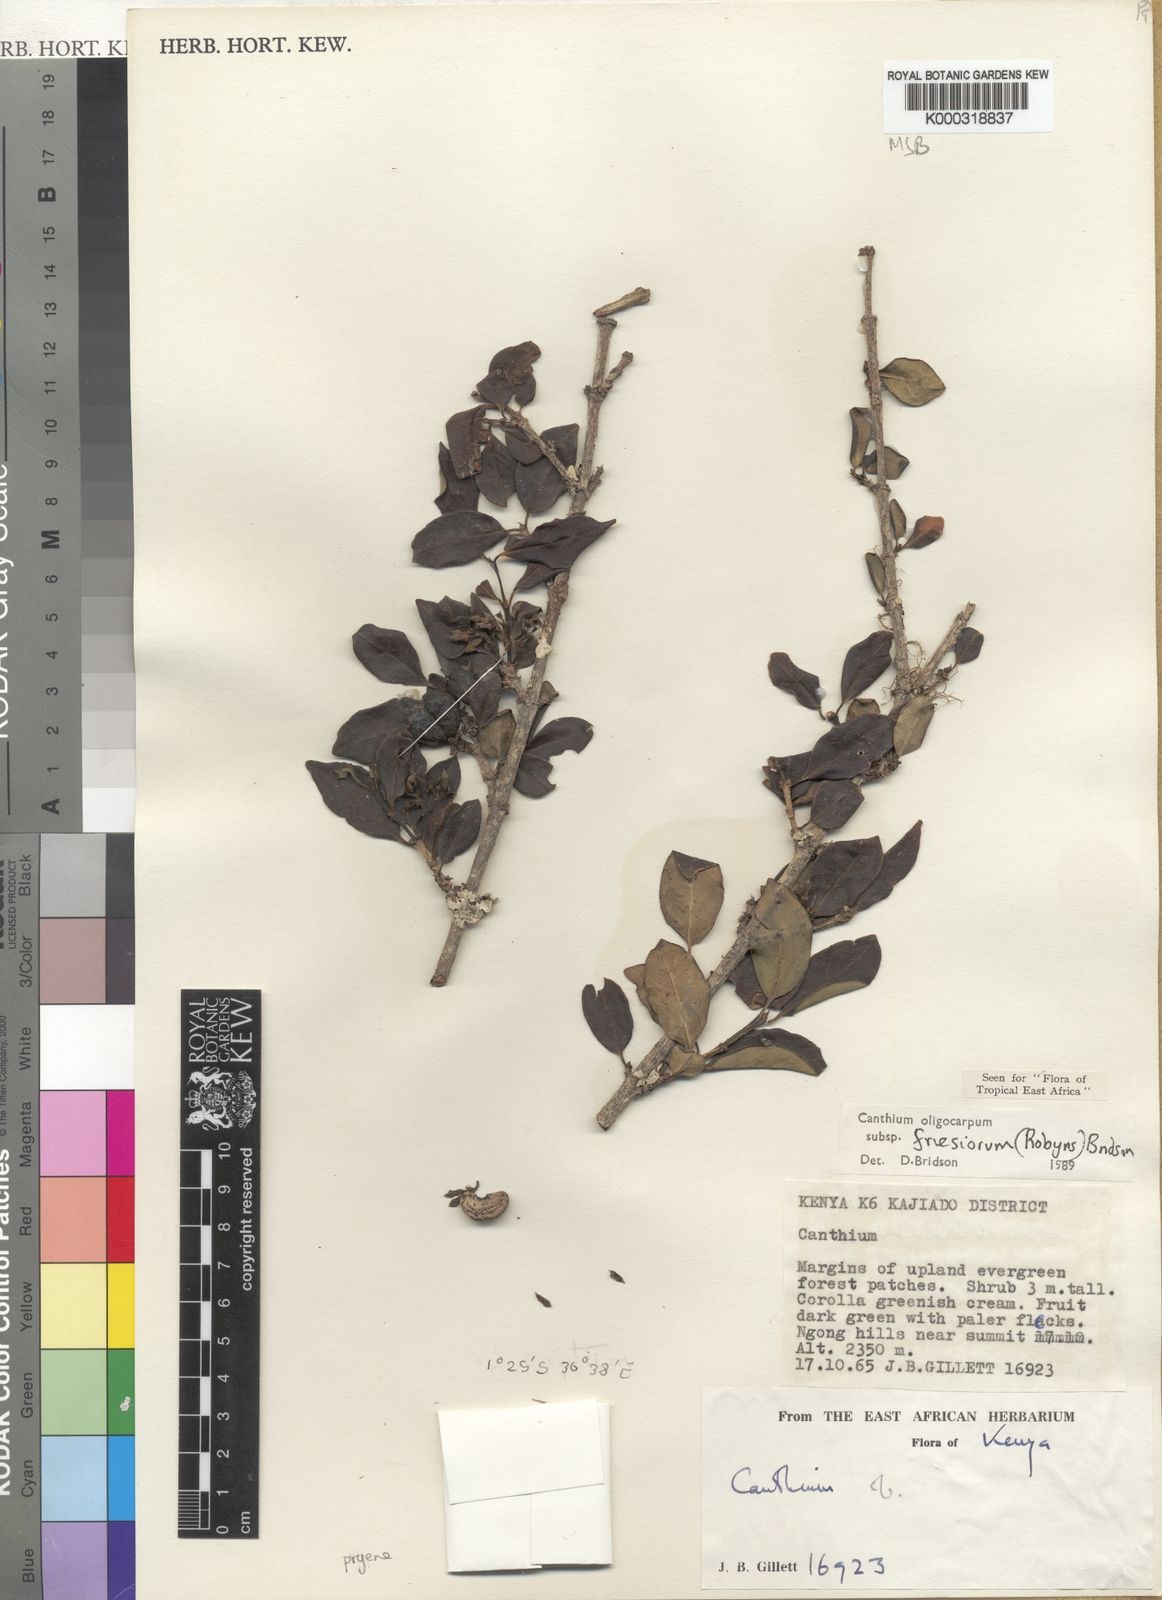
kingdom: Plantae
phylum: Tracheophyta
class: Magnoliopsida
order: Gentianales
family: Rubiaceae
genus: Canthium
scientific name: Canthium oligocarpum
